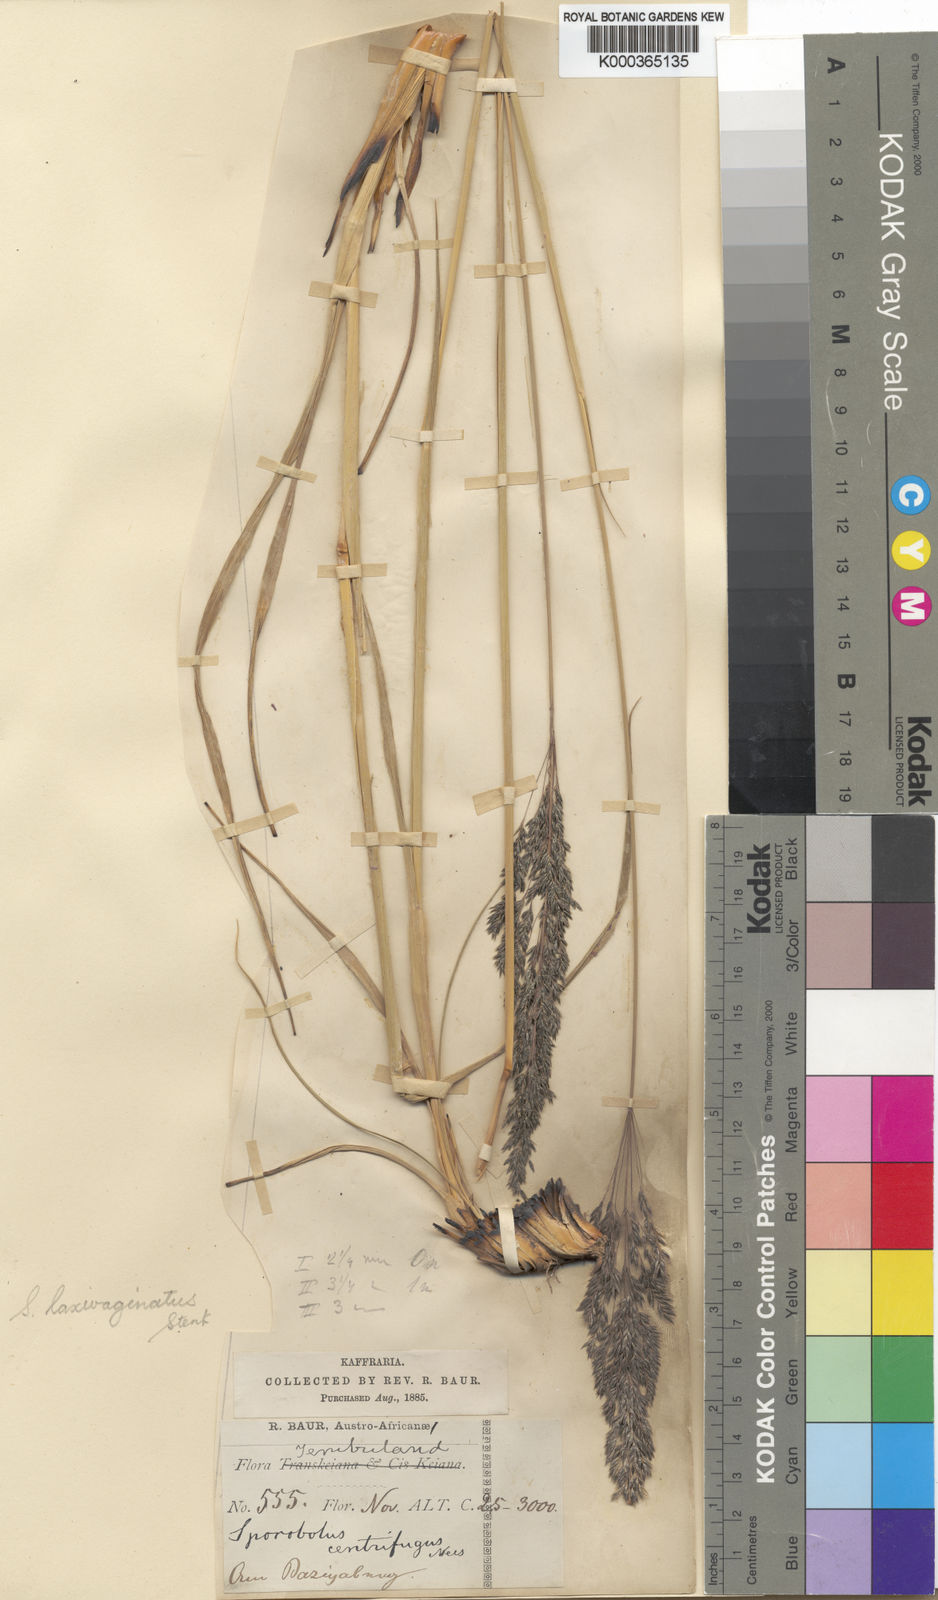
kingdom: Plantae
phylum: Tracheophyta
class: Liliopsida
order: Poales
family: Poaceae
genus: Sporobolus
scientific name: Sporobolus centrifugus
